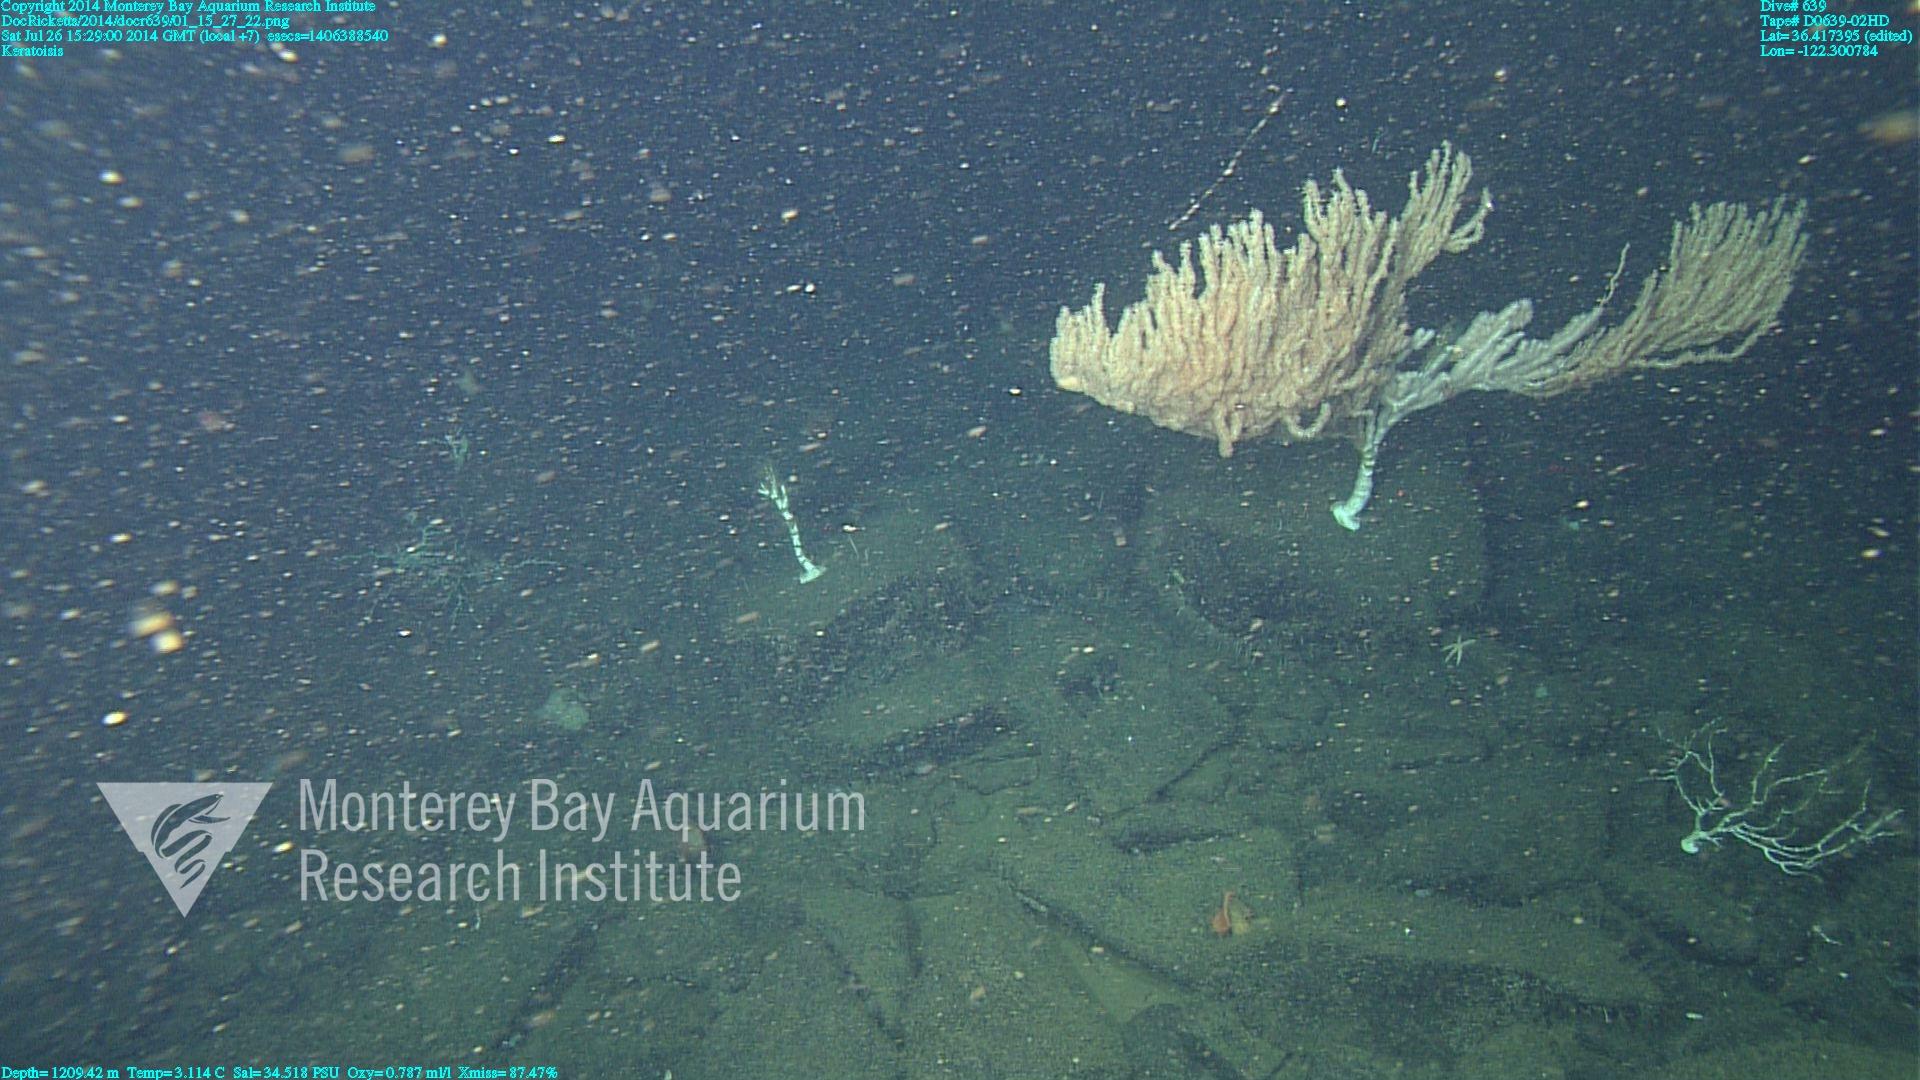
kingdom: Animalia
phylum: Cnidaria
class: Anthozoa
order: Scleralcyonacea
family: Keratoisididae
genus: Keratoisis
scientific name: Keratoisis
